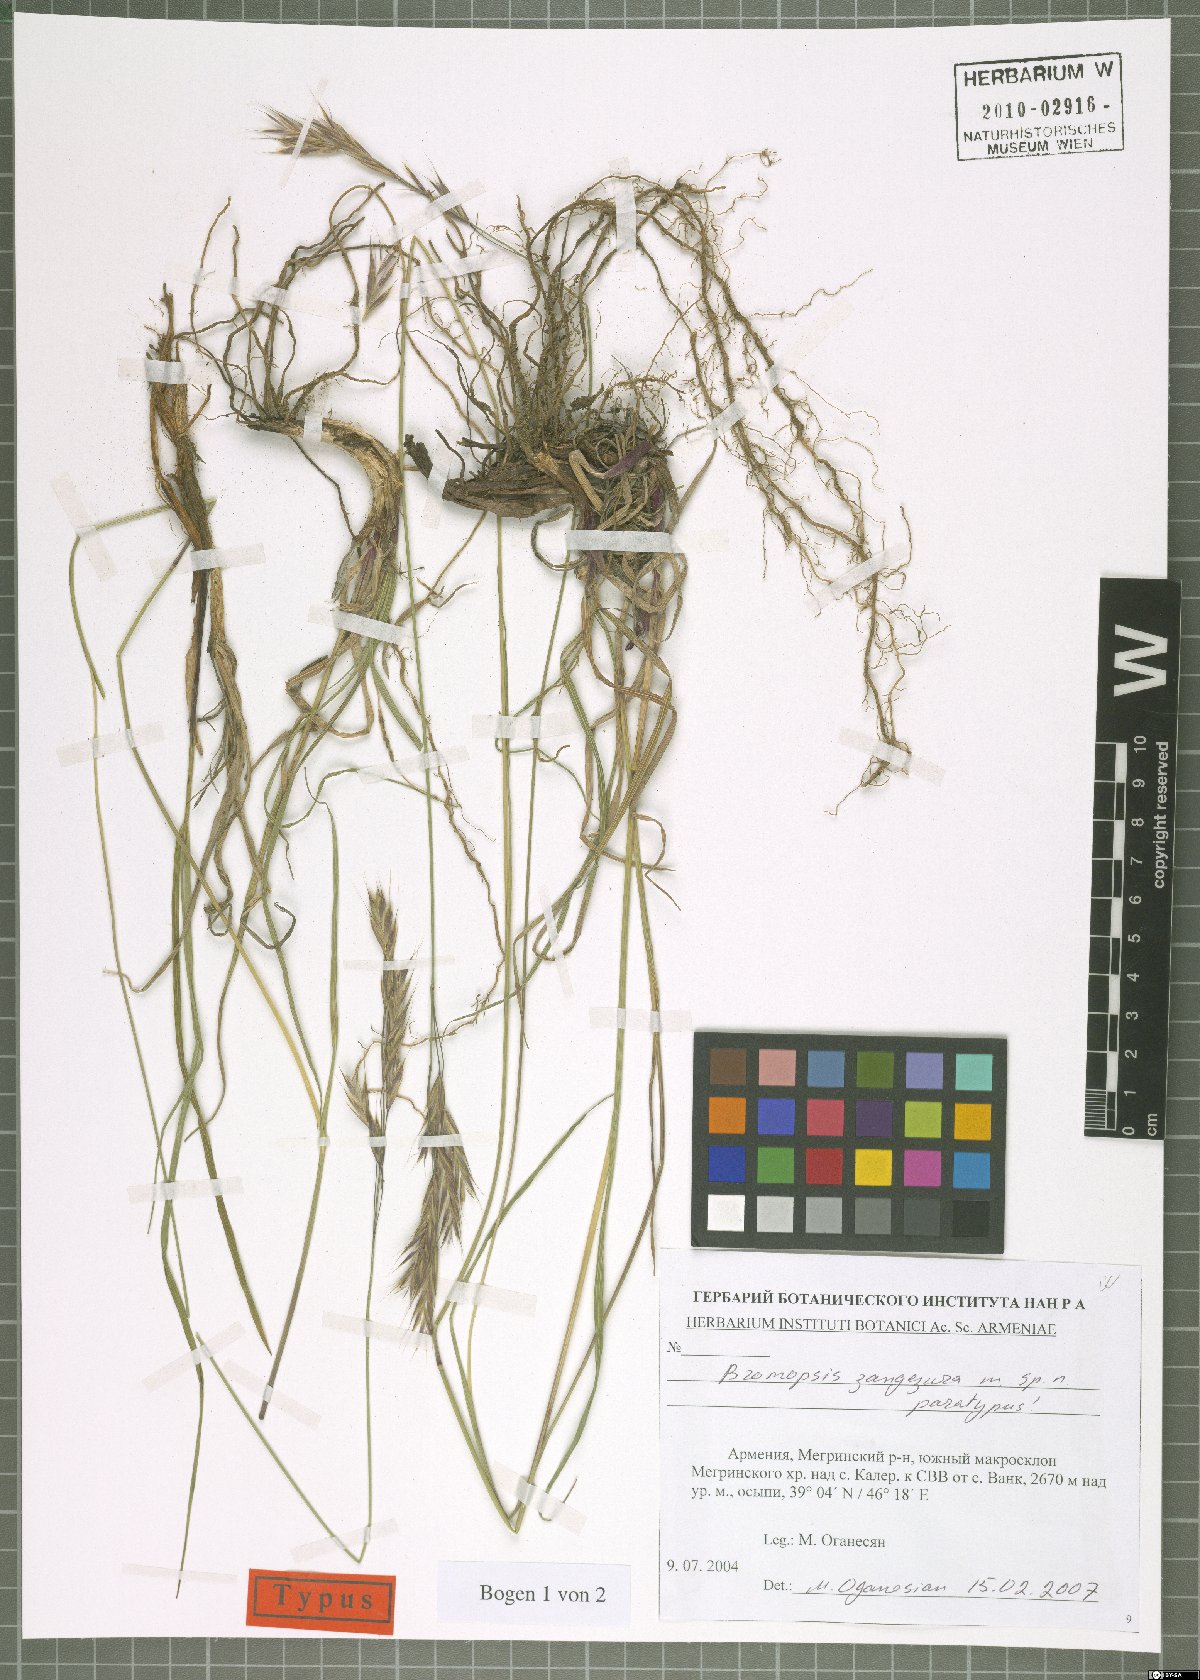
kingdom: Plantae
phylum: Tracheophyta
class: Liliopsida
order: Poales
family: Poaceae
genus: Bromus
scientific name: Bromus erectus
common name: Erect brome
